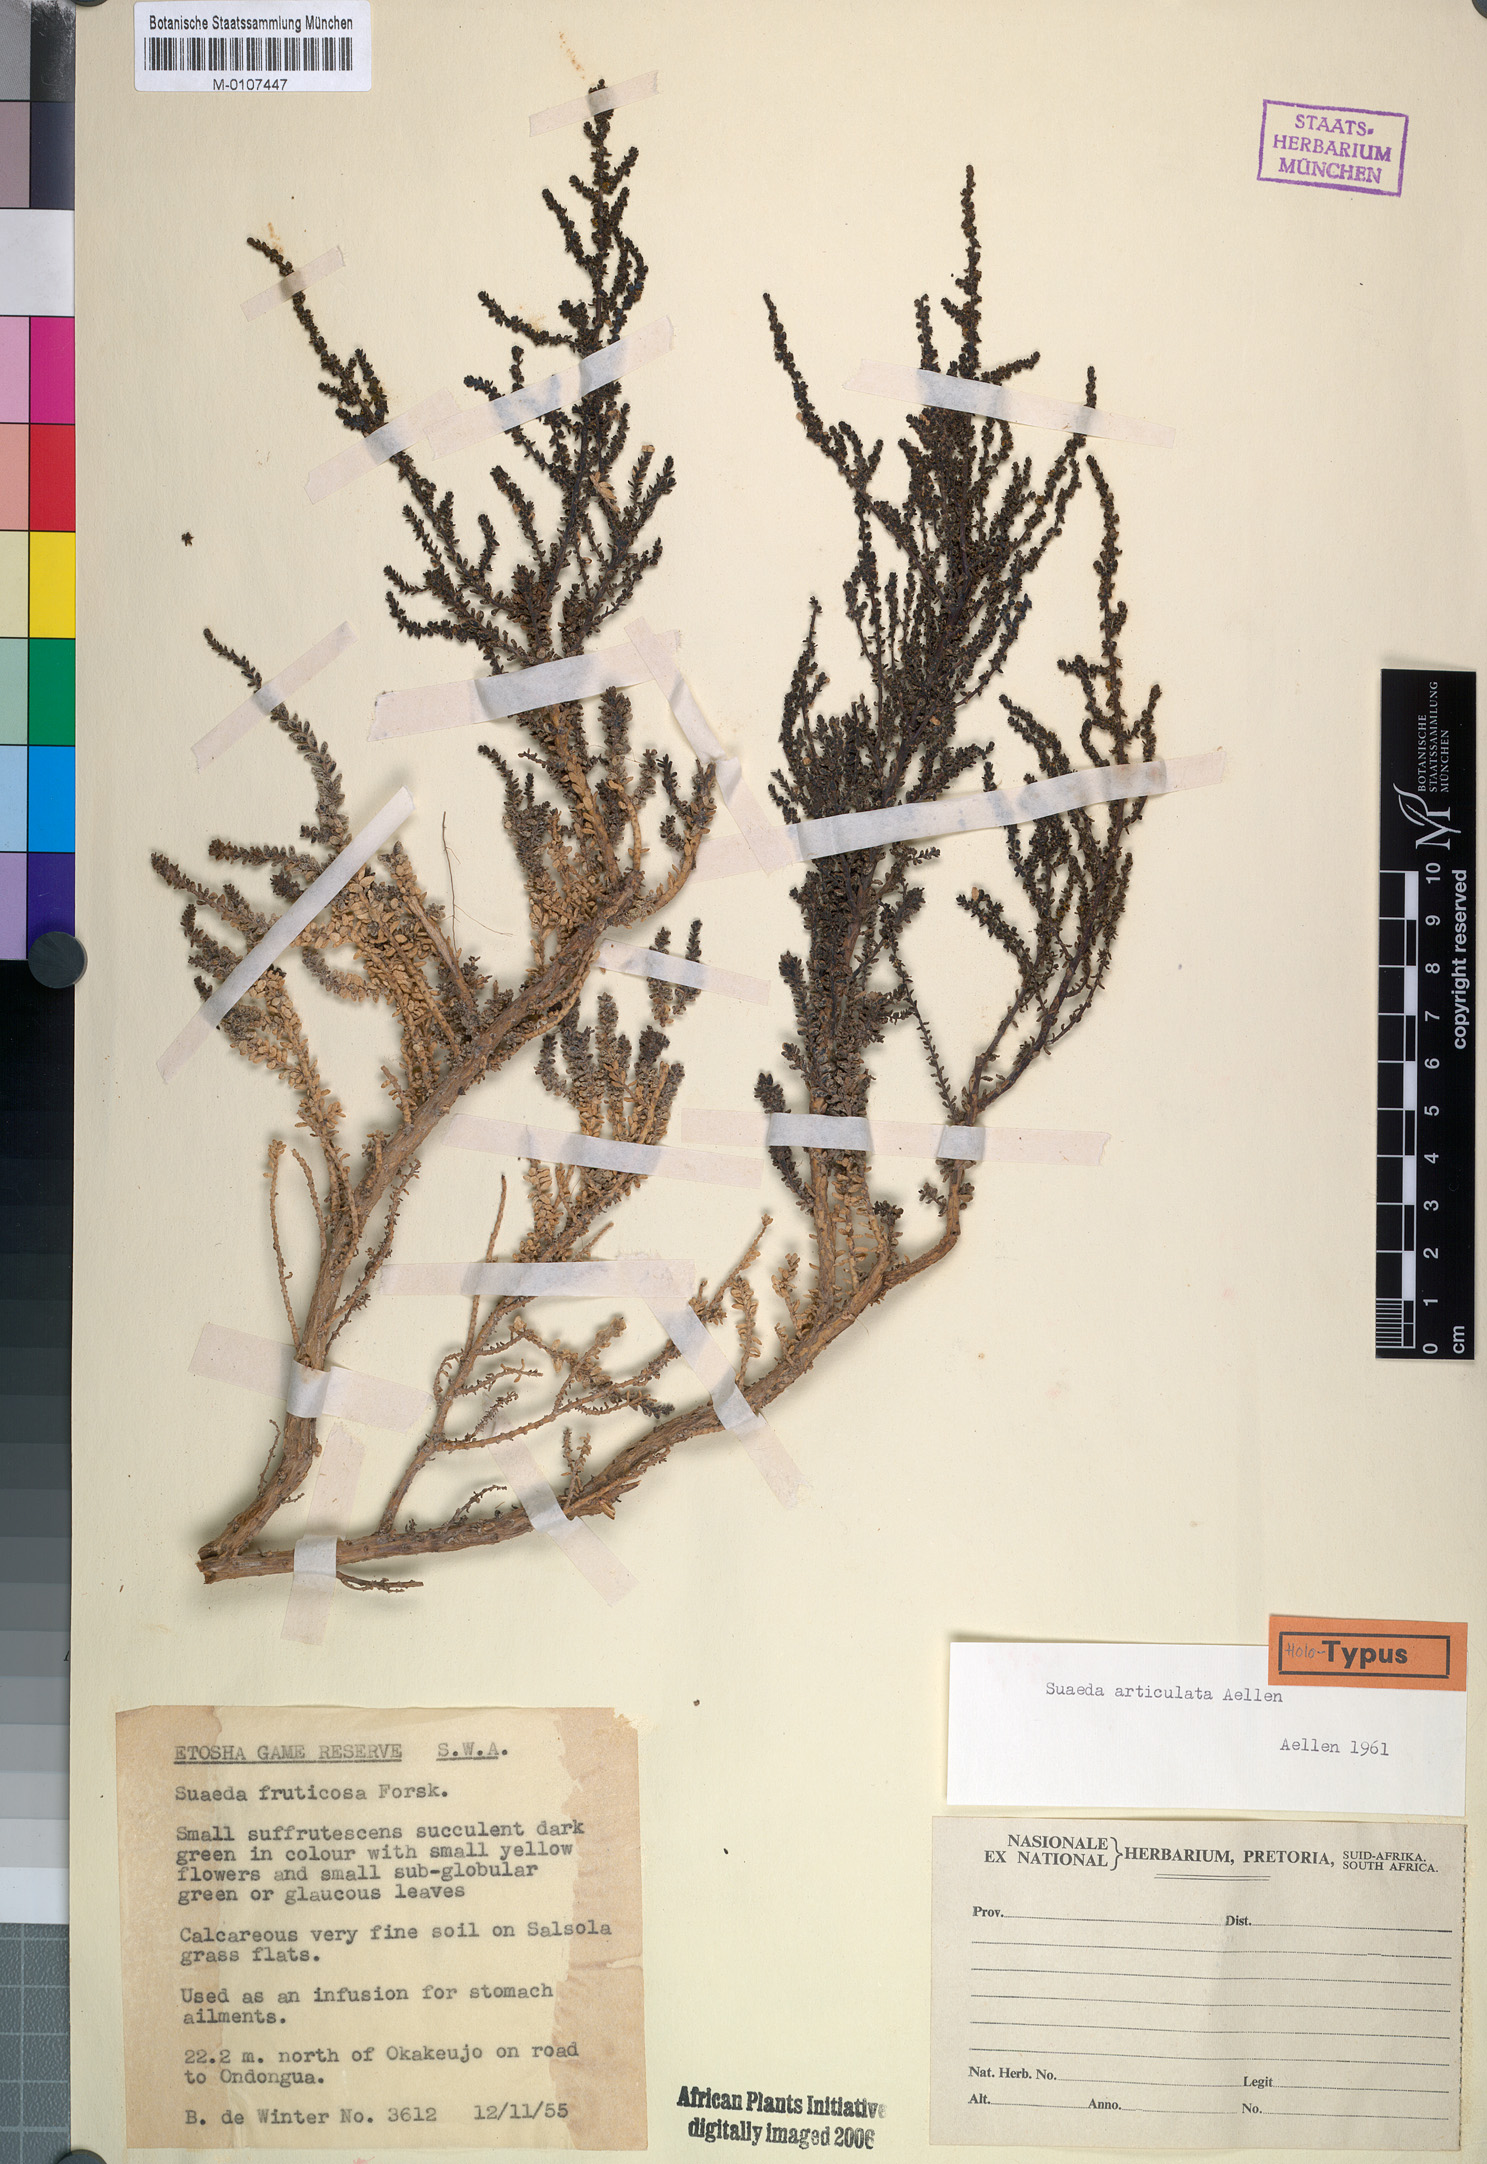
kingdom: Plantae
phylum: Tracheophyta
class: Magnoliopsida
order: Caryophyllales
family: Amaranthaceae
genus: Suaeda
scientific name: Suaeda articulata
